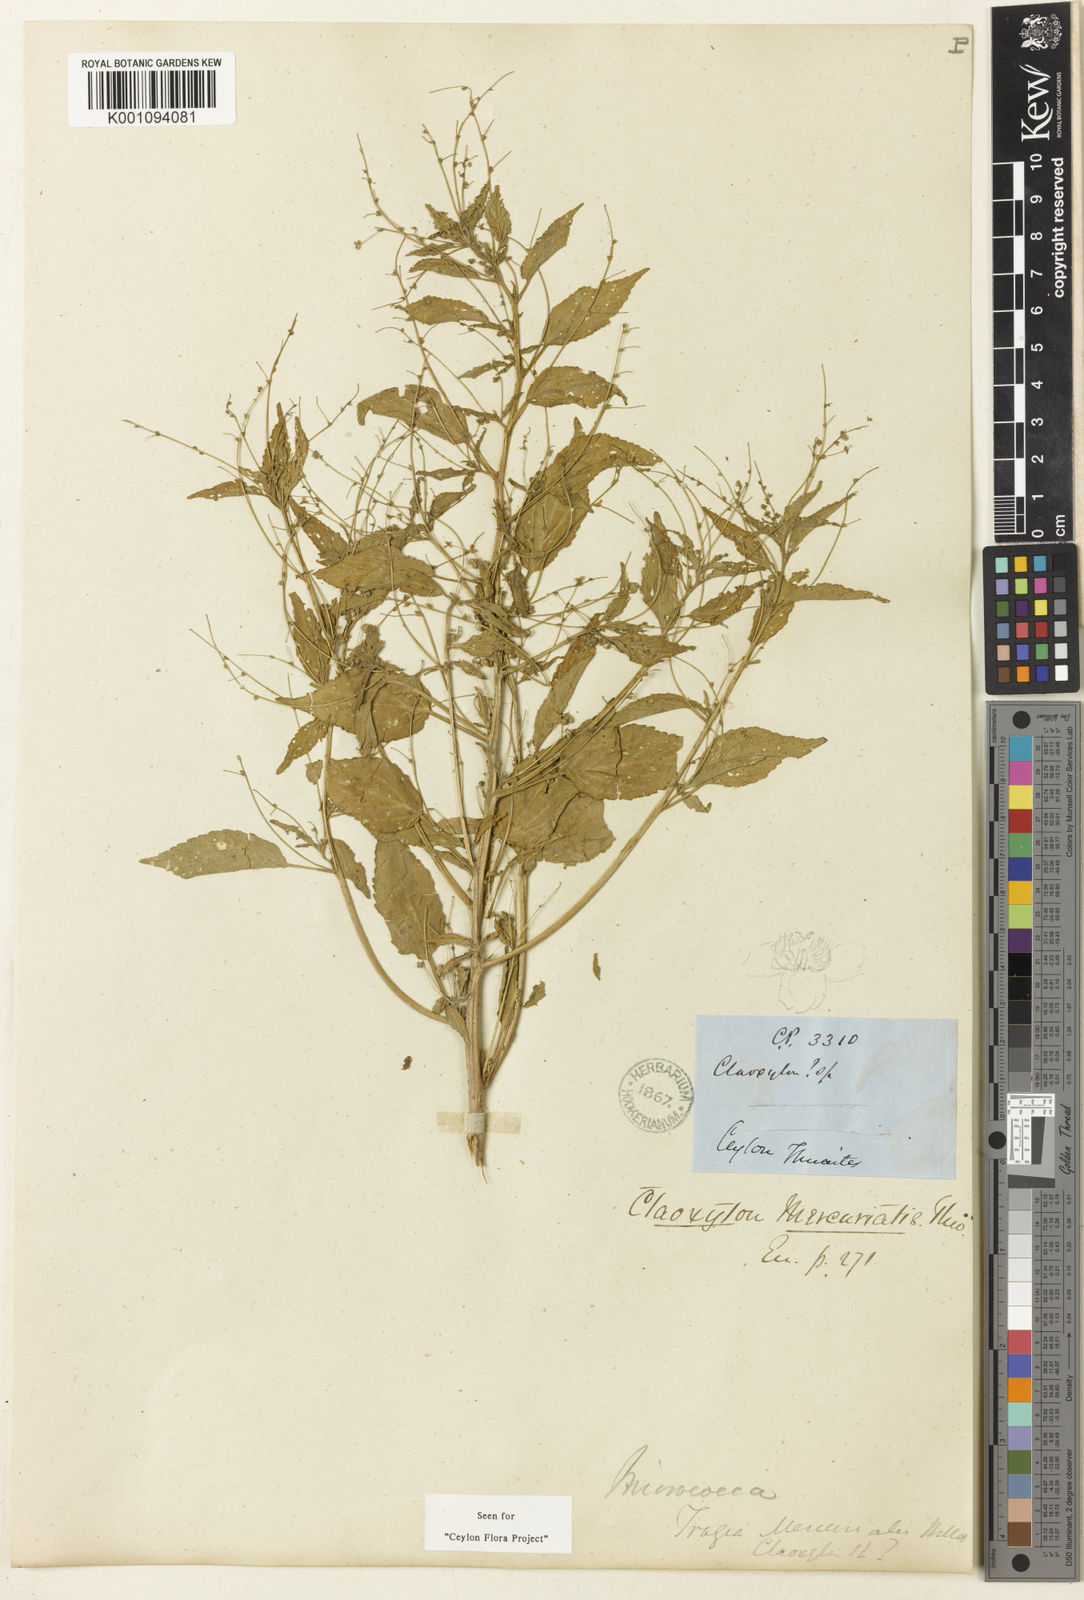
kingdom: Plantae
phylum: Tracheophyta
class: Magnoliopsida
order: Malpighiales
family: Euphorbiaceae
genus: Micrococca
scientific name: Micrococca mercurialis
